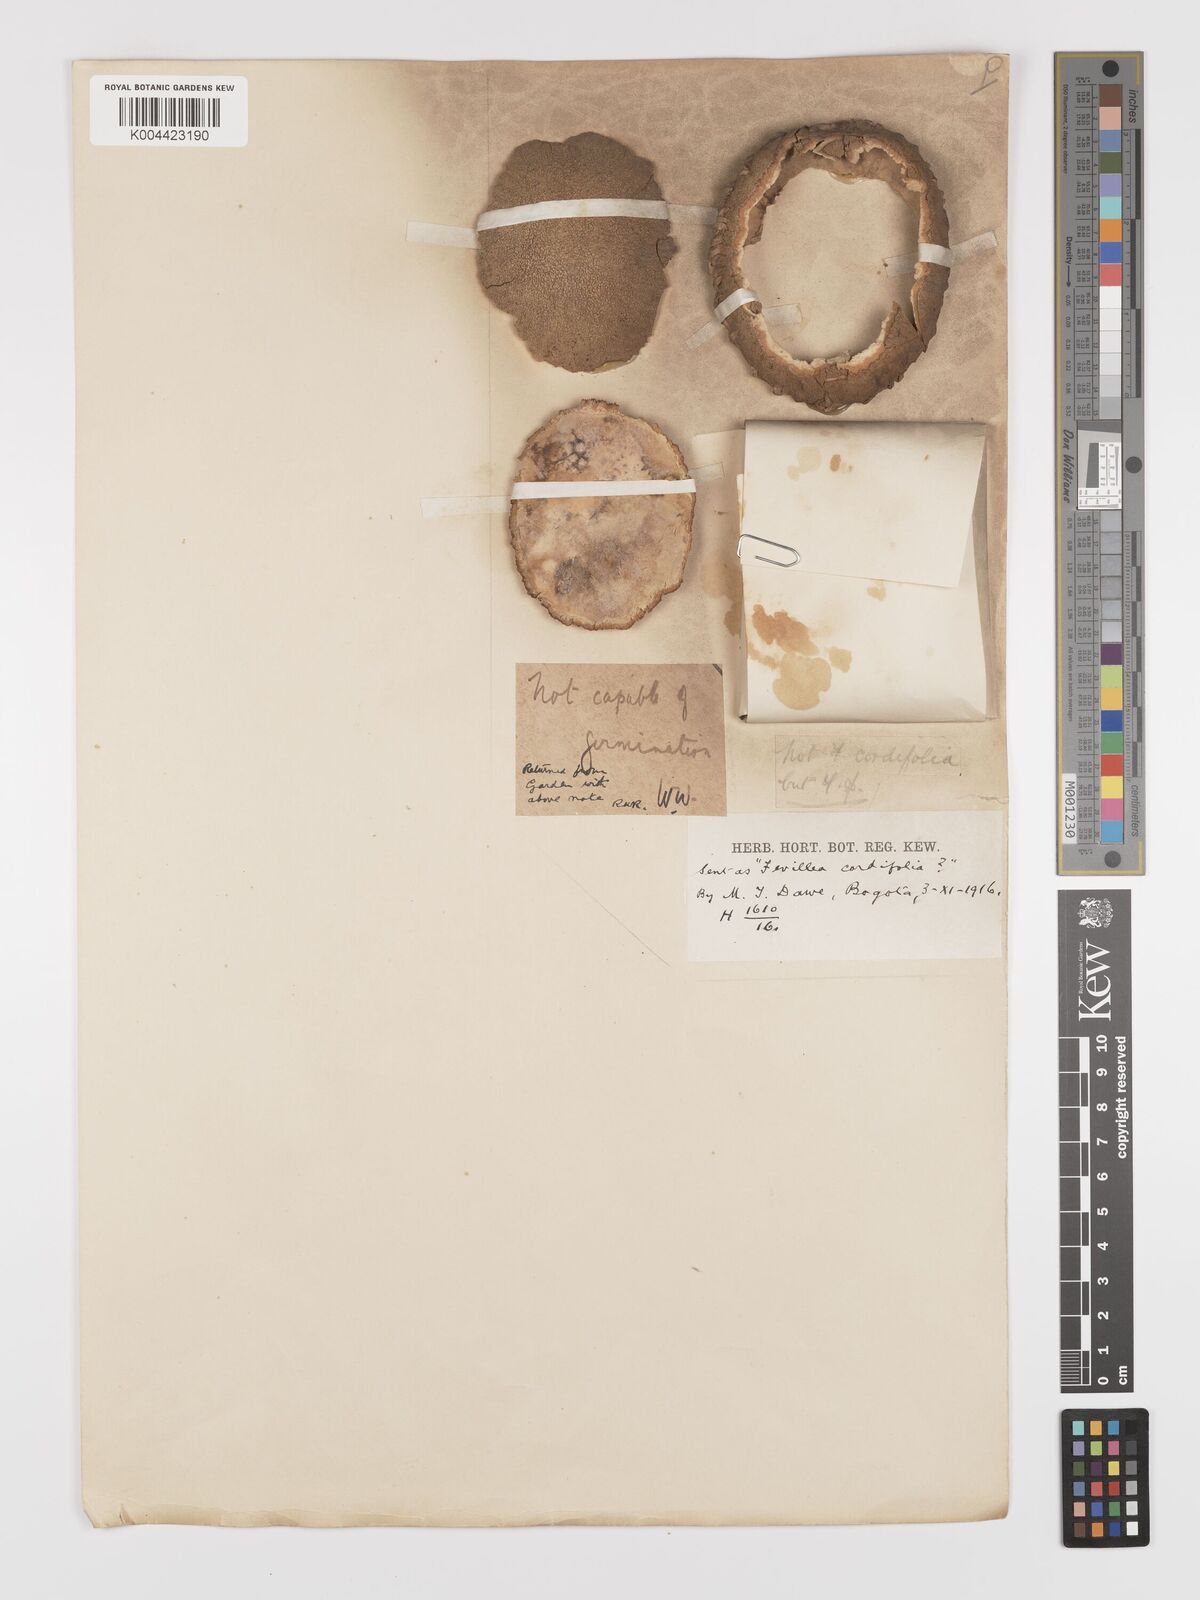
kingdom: Plantae
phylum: Tracheophyta
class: Magnoliopsida
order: Cucurbitales
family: Cucurbitaceae
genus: Fevillea
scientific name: Fevillea pedatifolia
